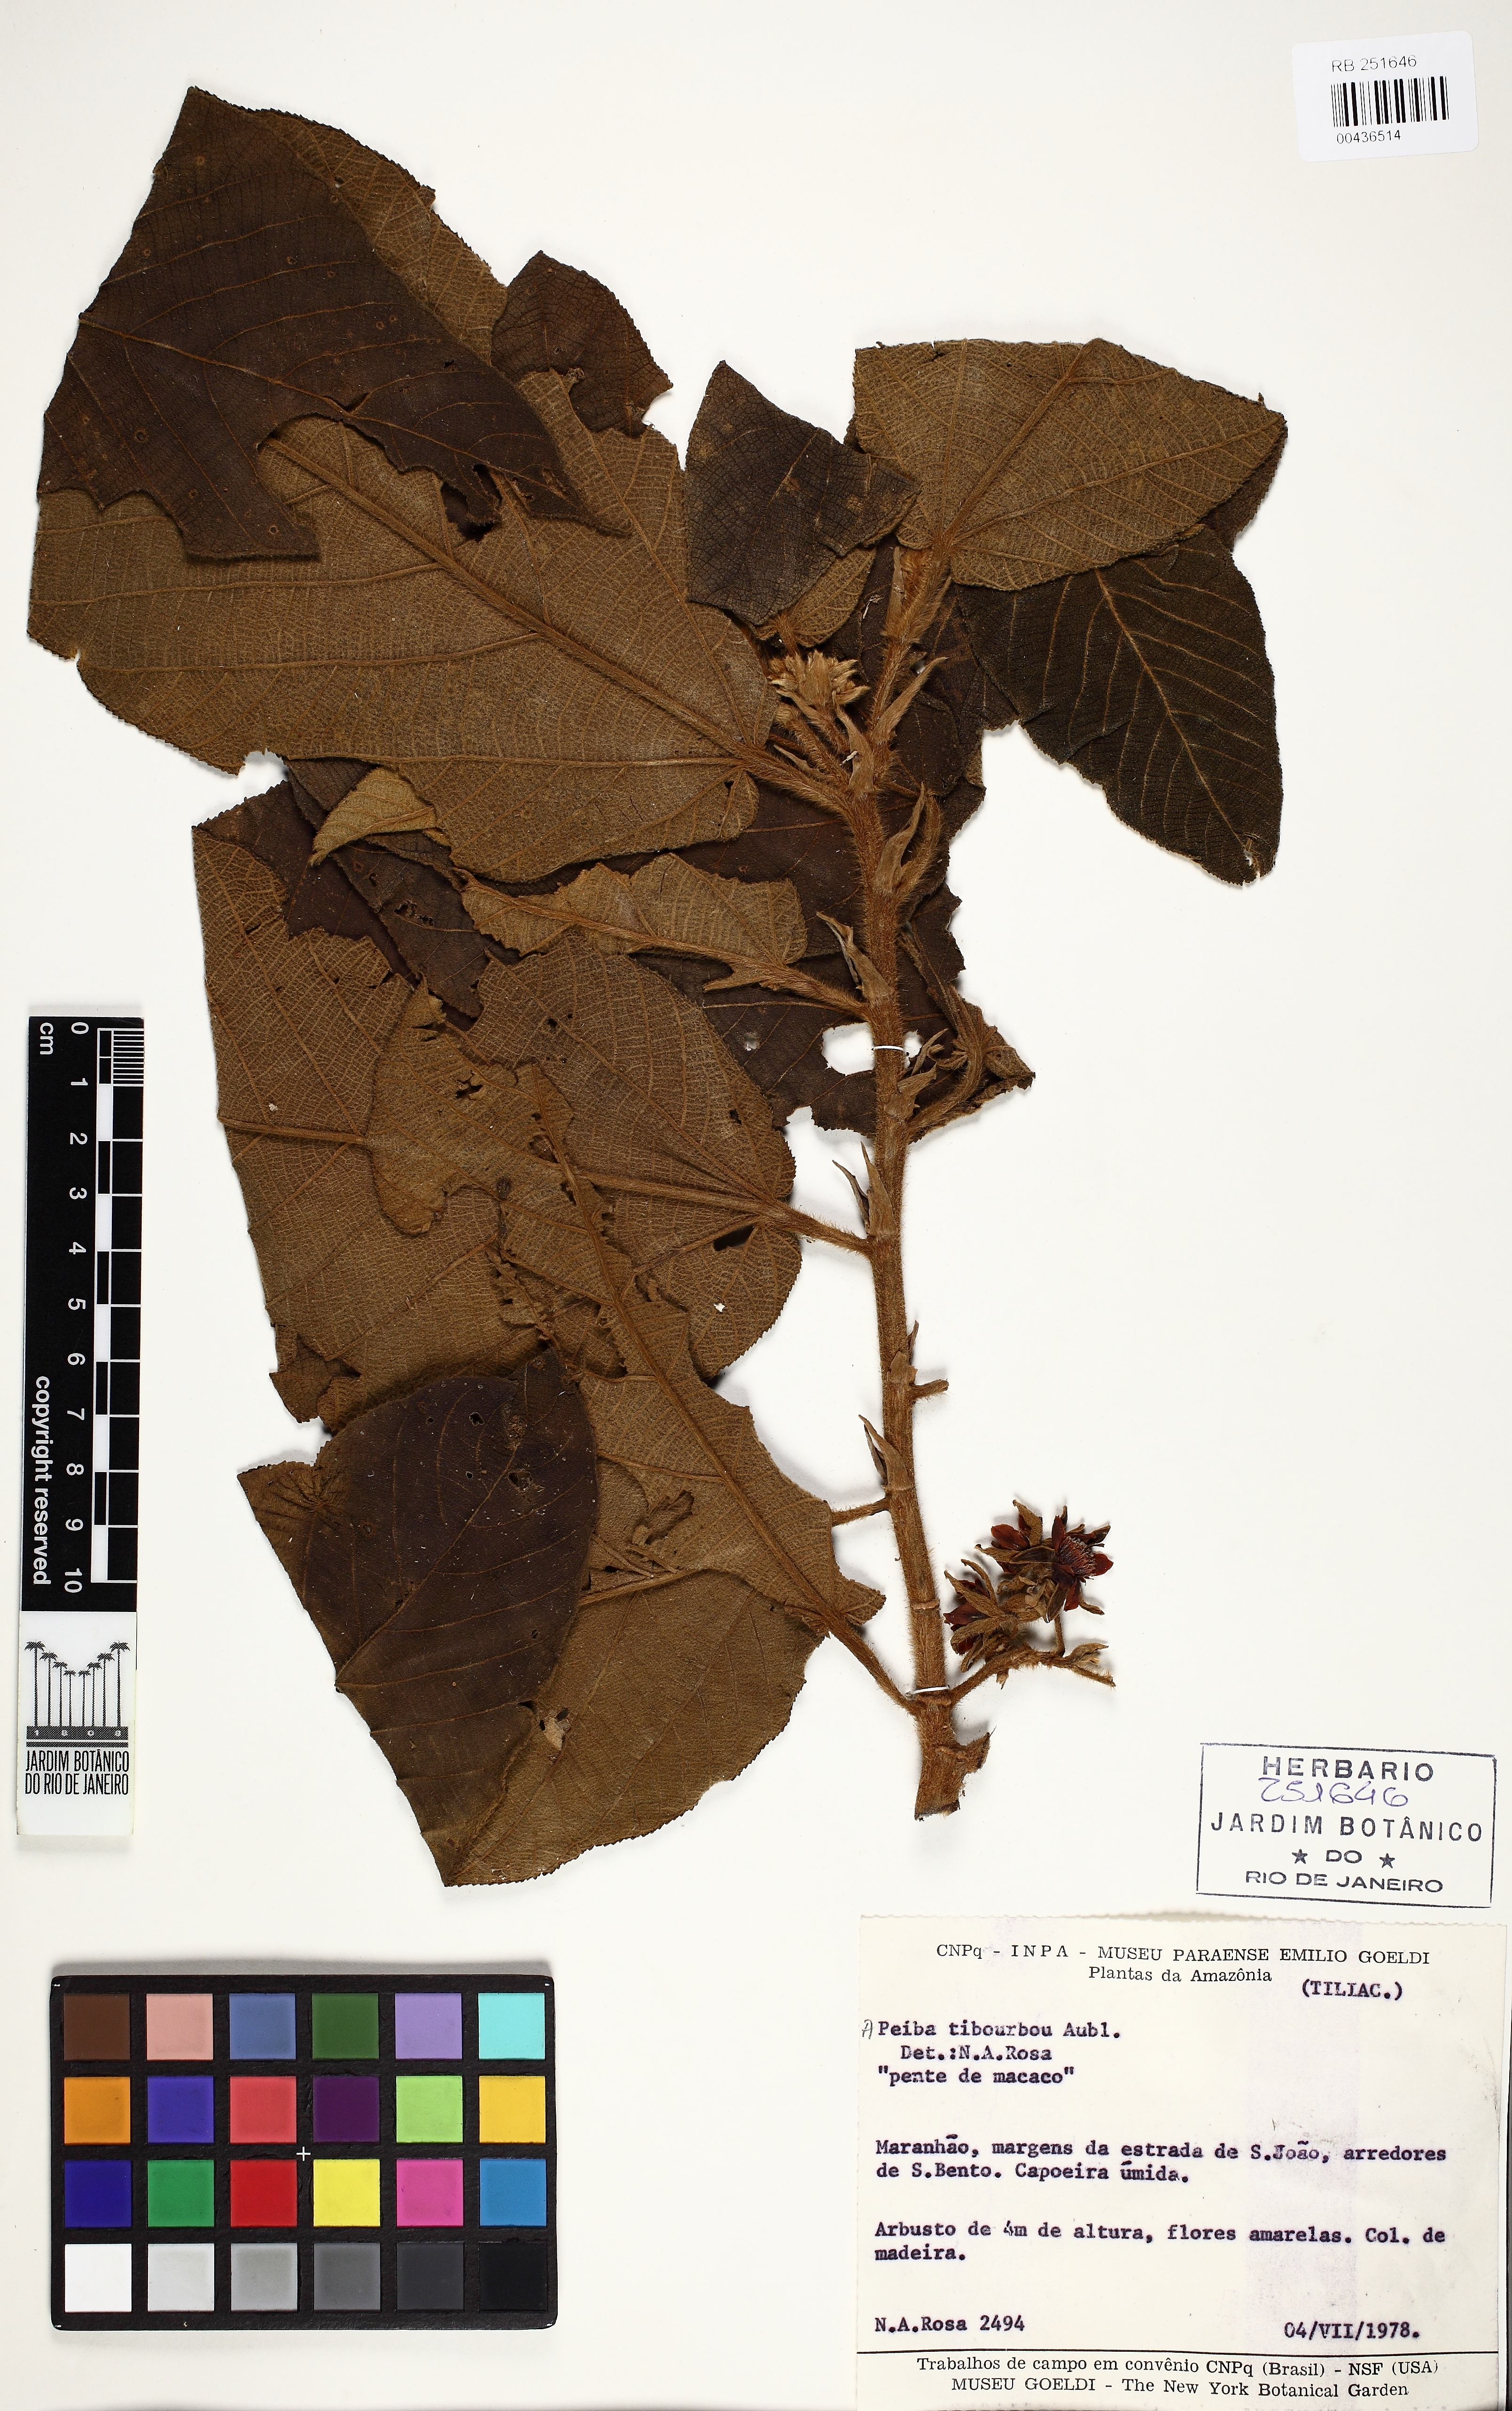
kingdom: Plantae
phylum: Tracheophyta
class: Magnoliopsida
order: Malvales
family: Malvaceae
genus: Apeiba
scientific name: Apeiba tibourbou
